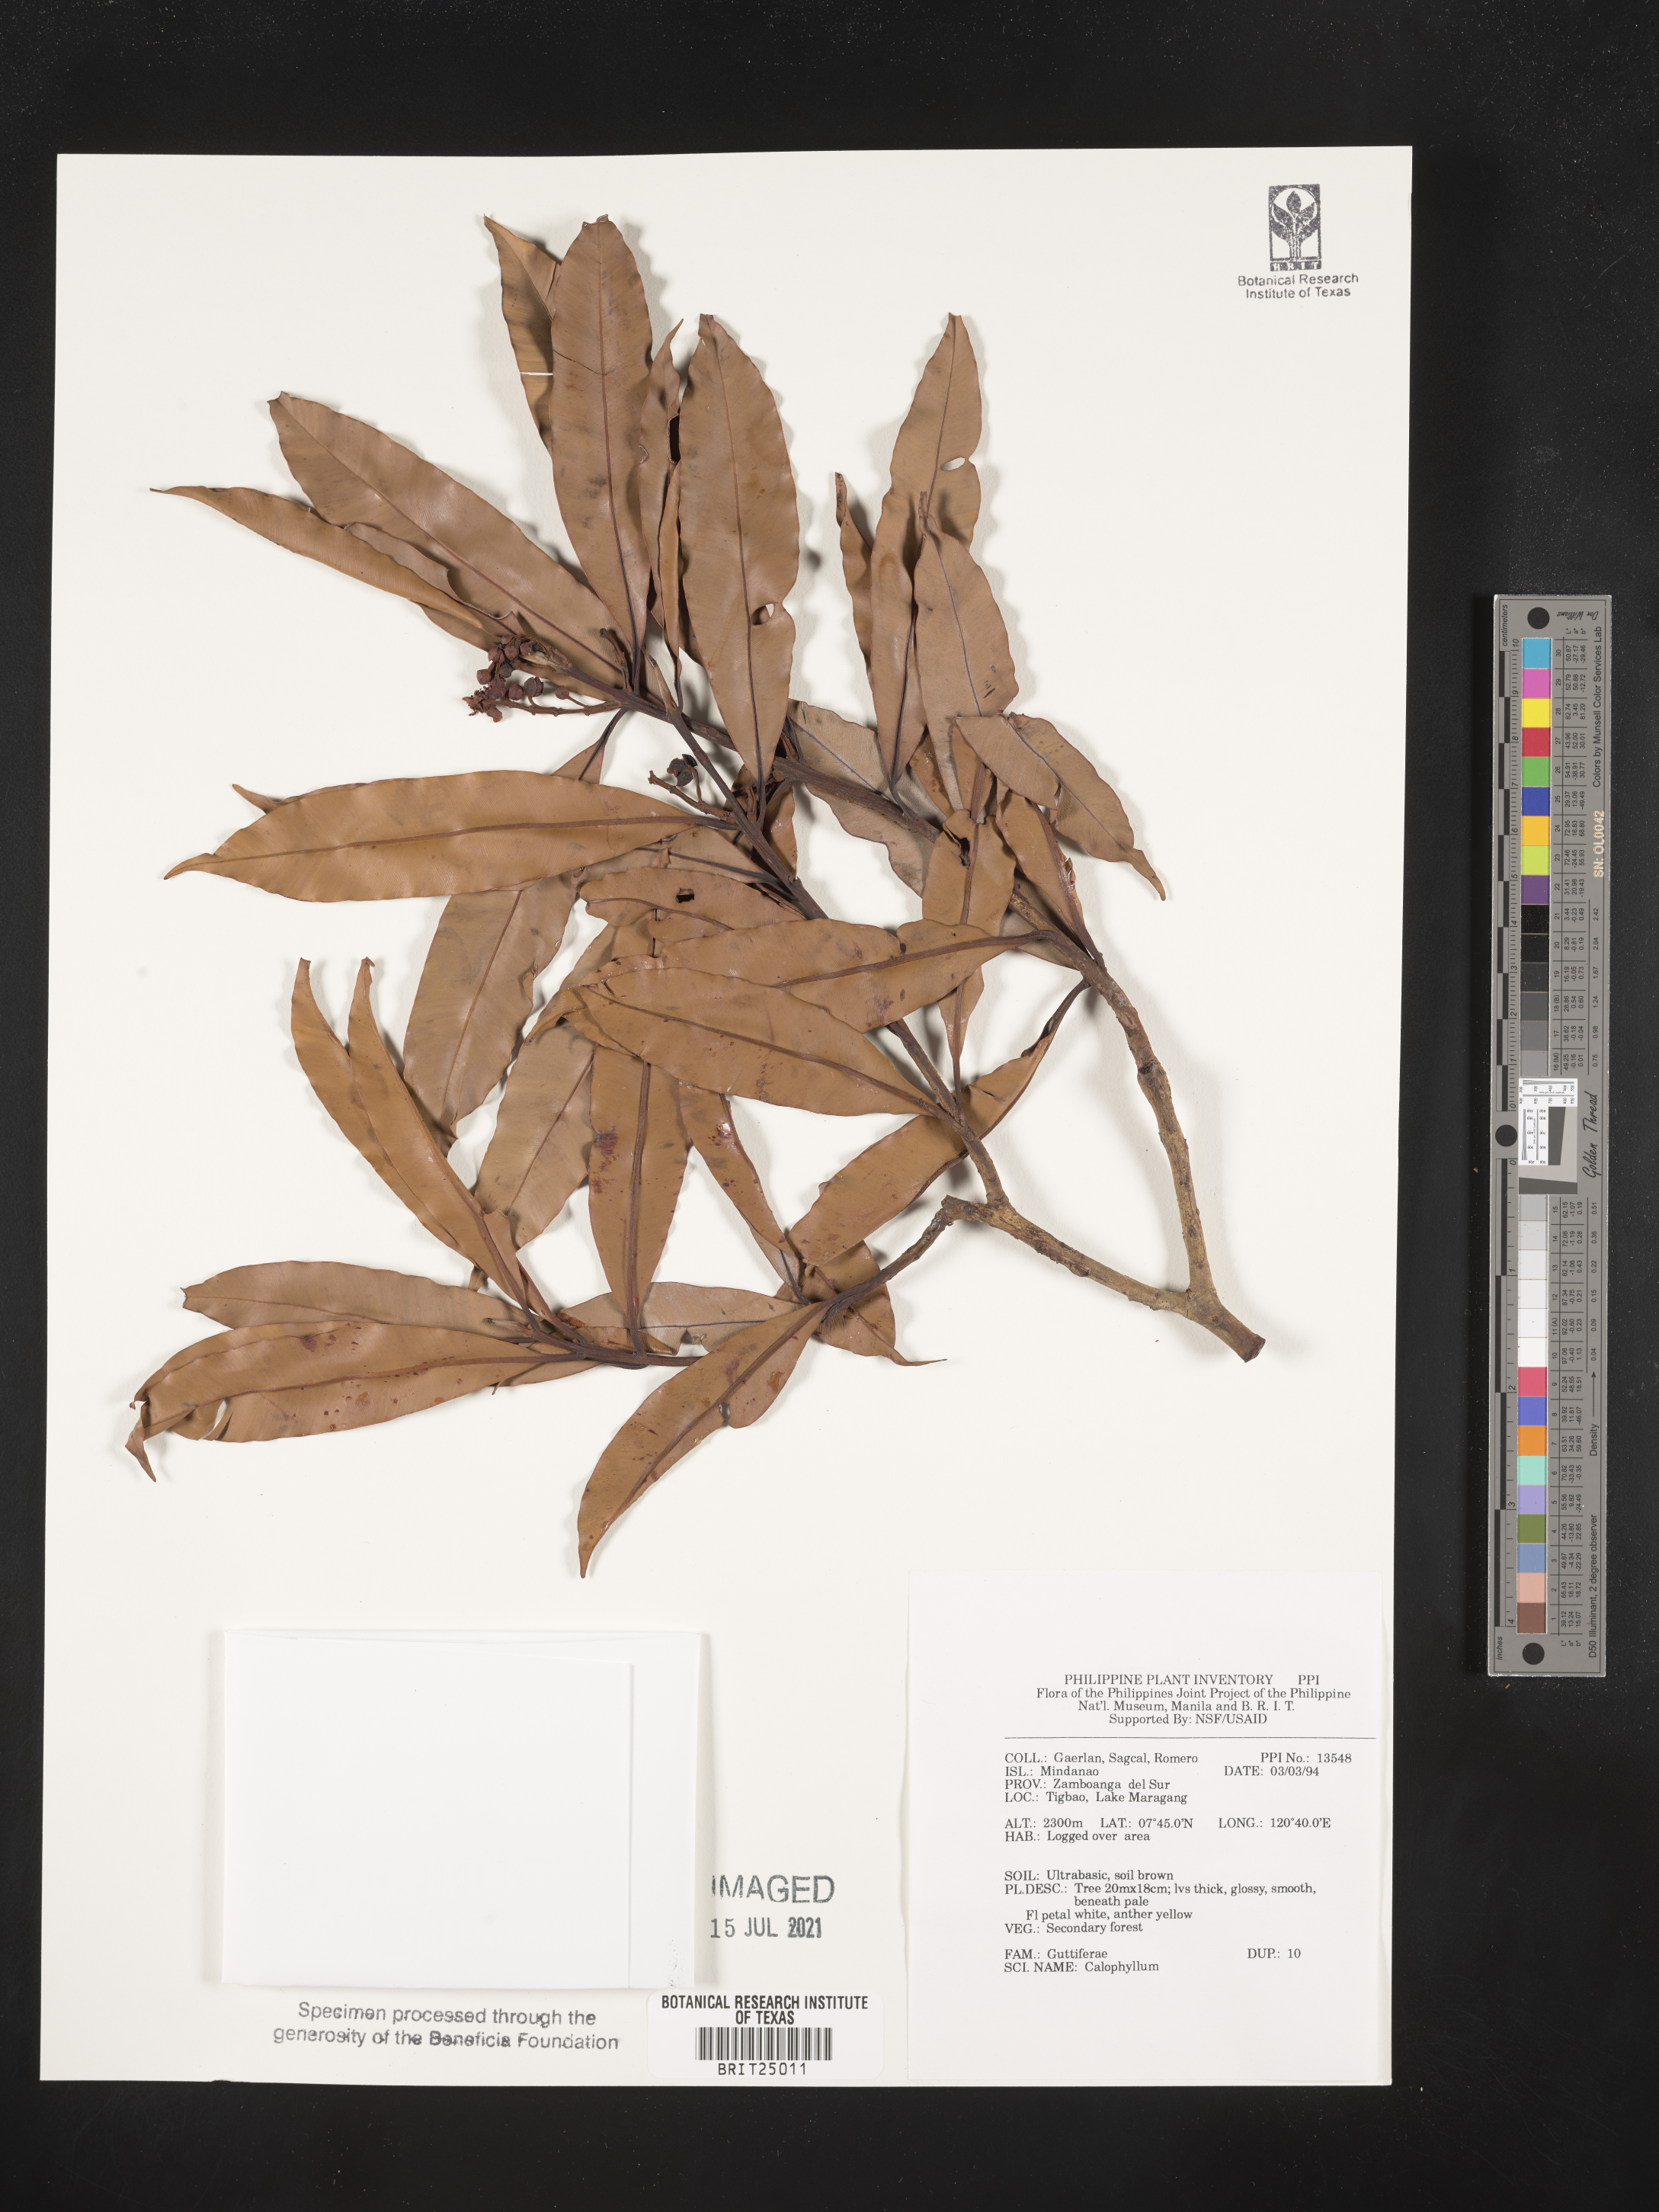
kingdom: Plantae
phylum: Tracheophyta
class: Magnoliopsida
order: Malpighiales
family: Calophyllaceae
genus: Calophyllum
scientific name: Calophyllum
